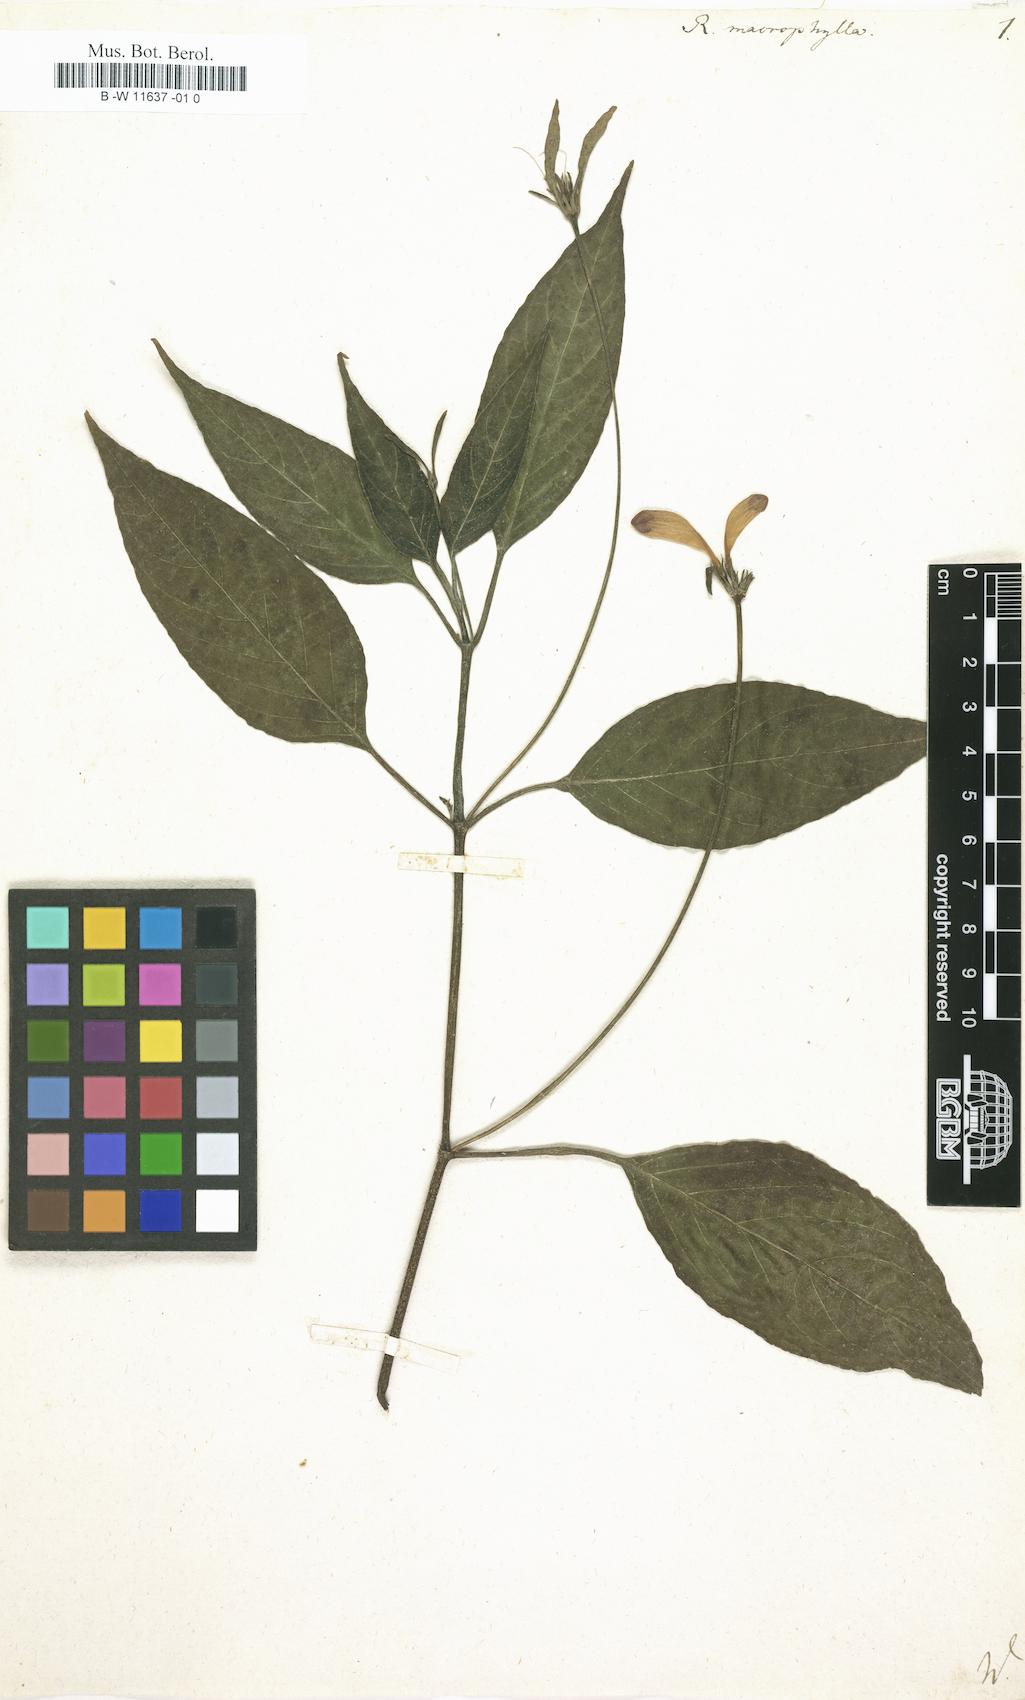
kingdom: Plantae
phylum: Tracheophyta
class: Magnoliopsida
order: Lamiales
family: Acanthaceae
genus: Ruellia
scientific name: Ruellia macrophylla
